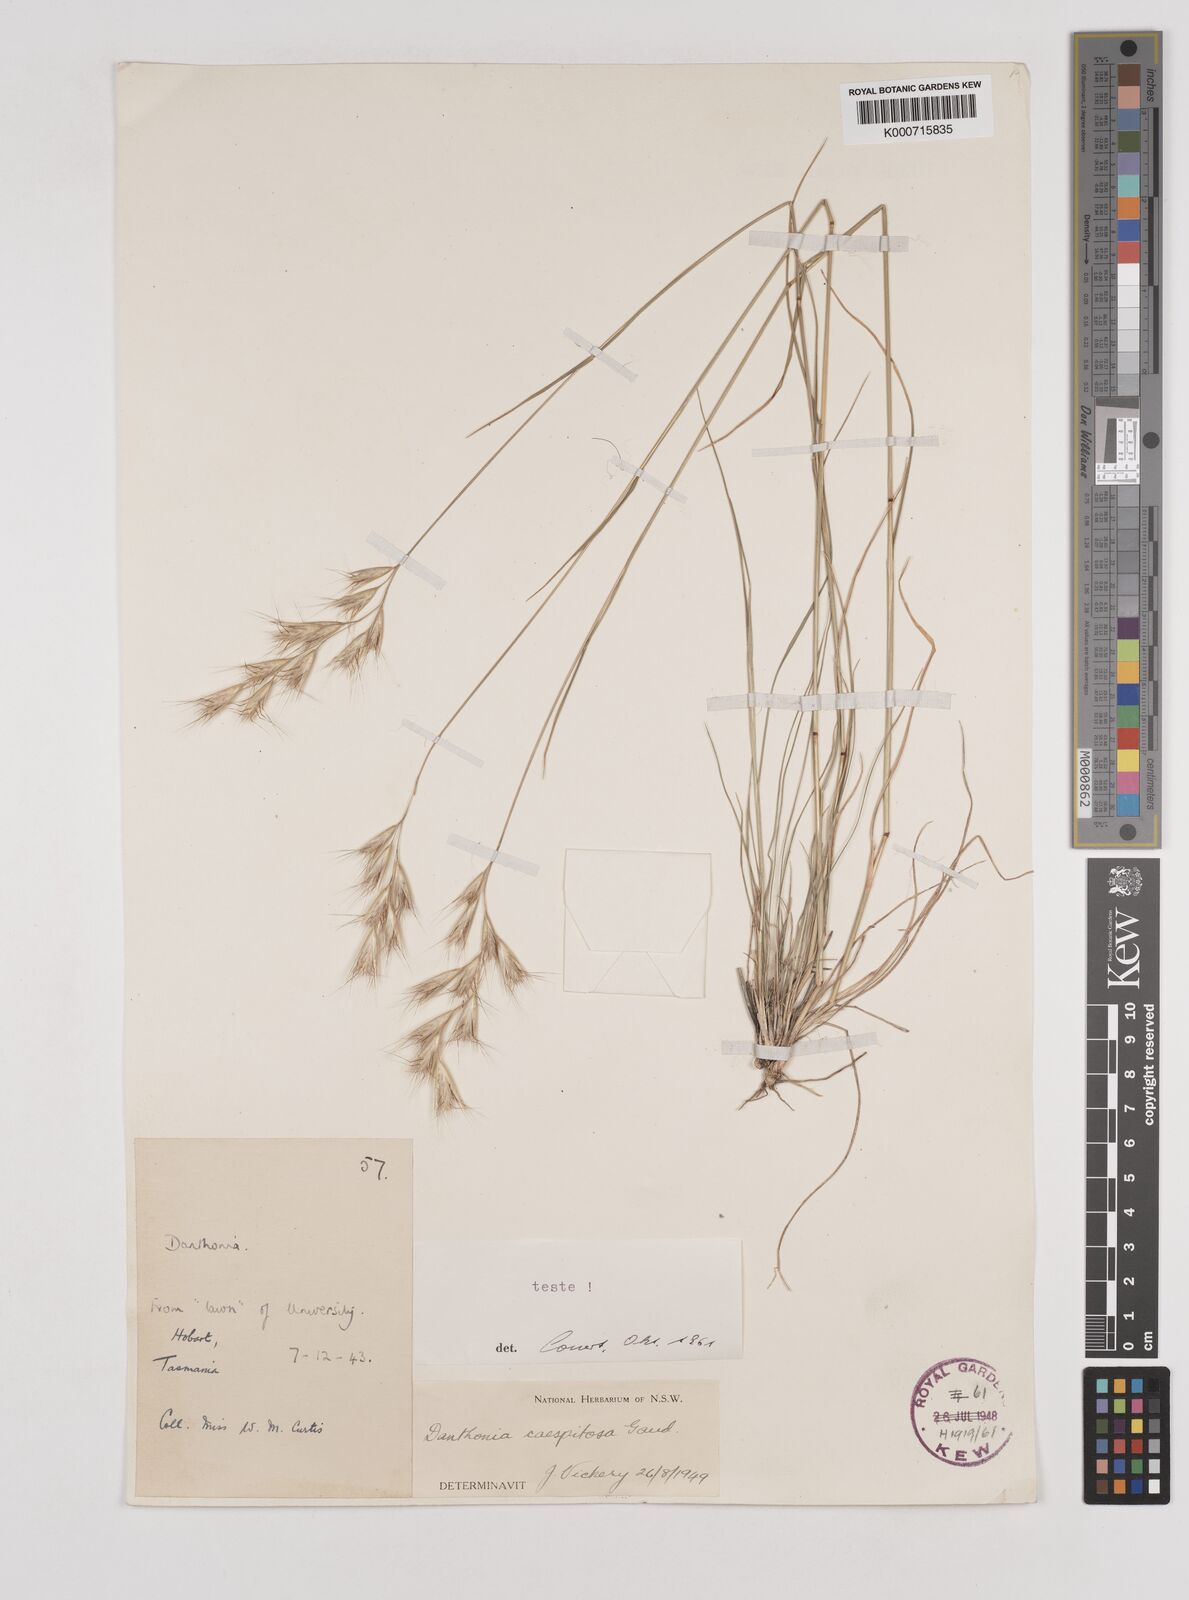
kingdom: Plantae
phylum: Tracheophyta
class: Liliopsida
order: Poales
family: Poaceae
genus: Rytidosperma
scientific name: Rytidosperma caespitosum
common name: Tufted wallaby grass
